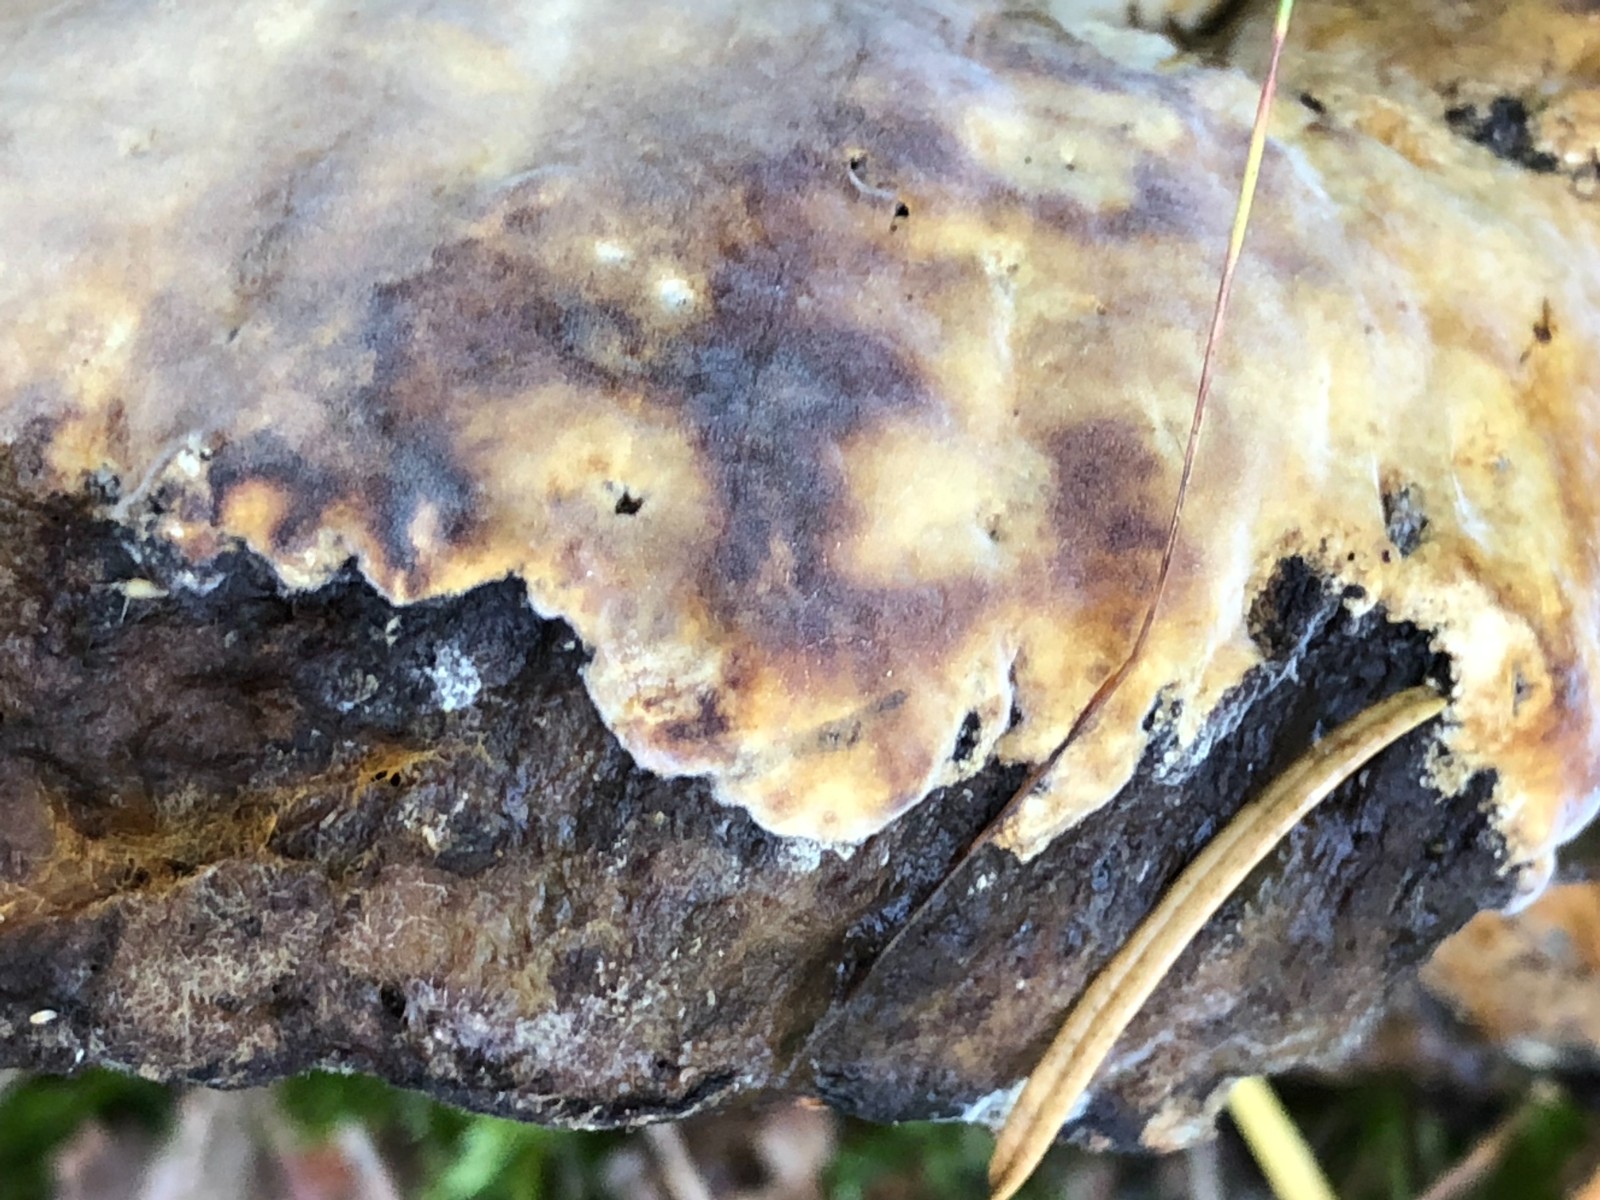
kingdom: Fungi
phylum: Ascomycota
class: Sordariomycetes
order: Hypocreales
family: Hypocreaceae
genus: Hypomyces
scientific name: Hypomyces chrysospermus
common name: gulskimmel-snylteskorpe
